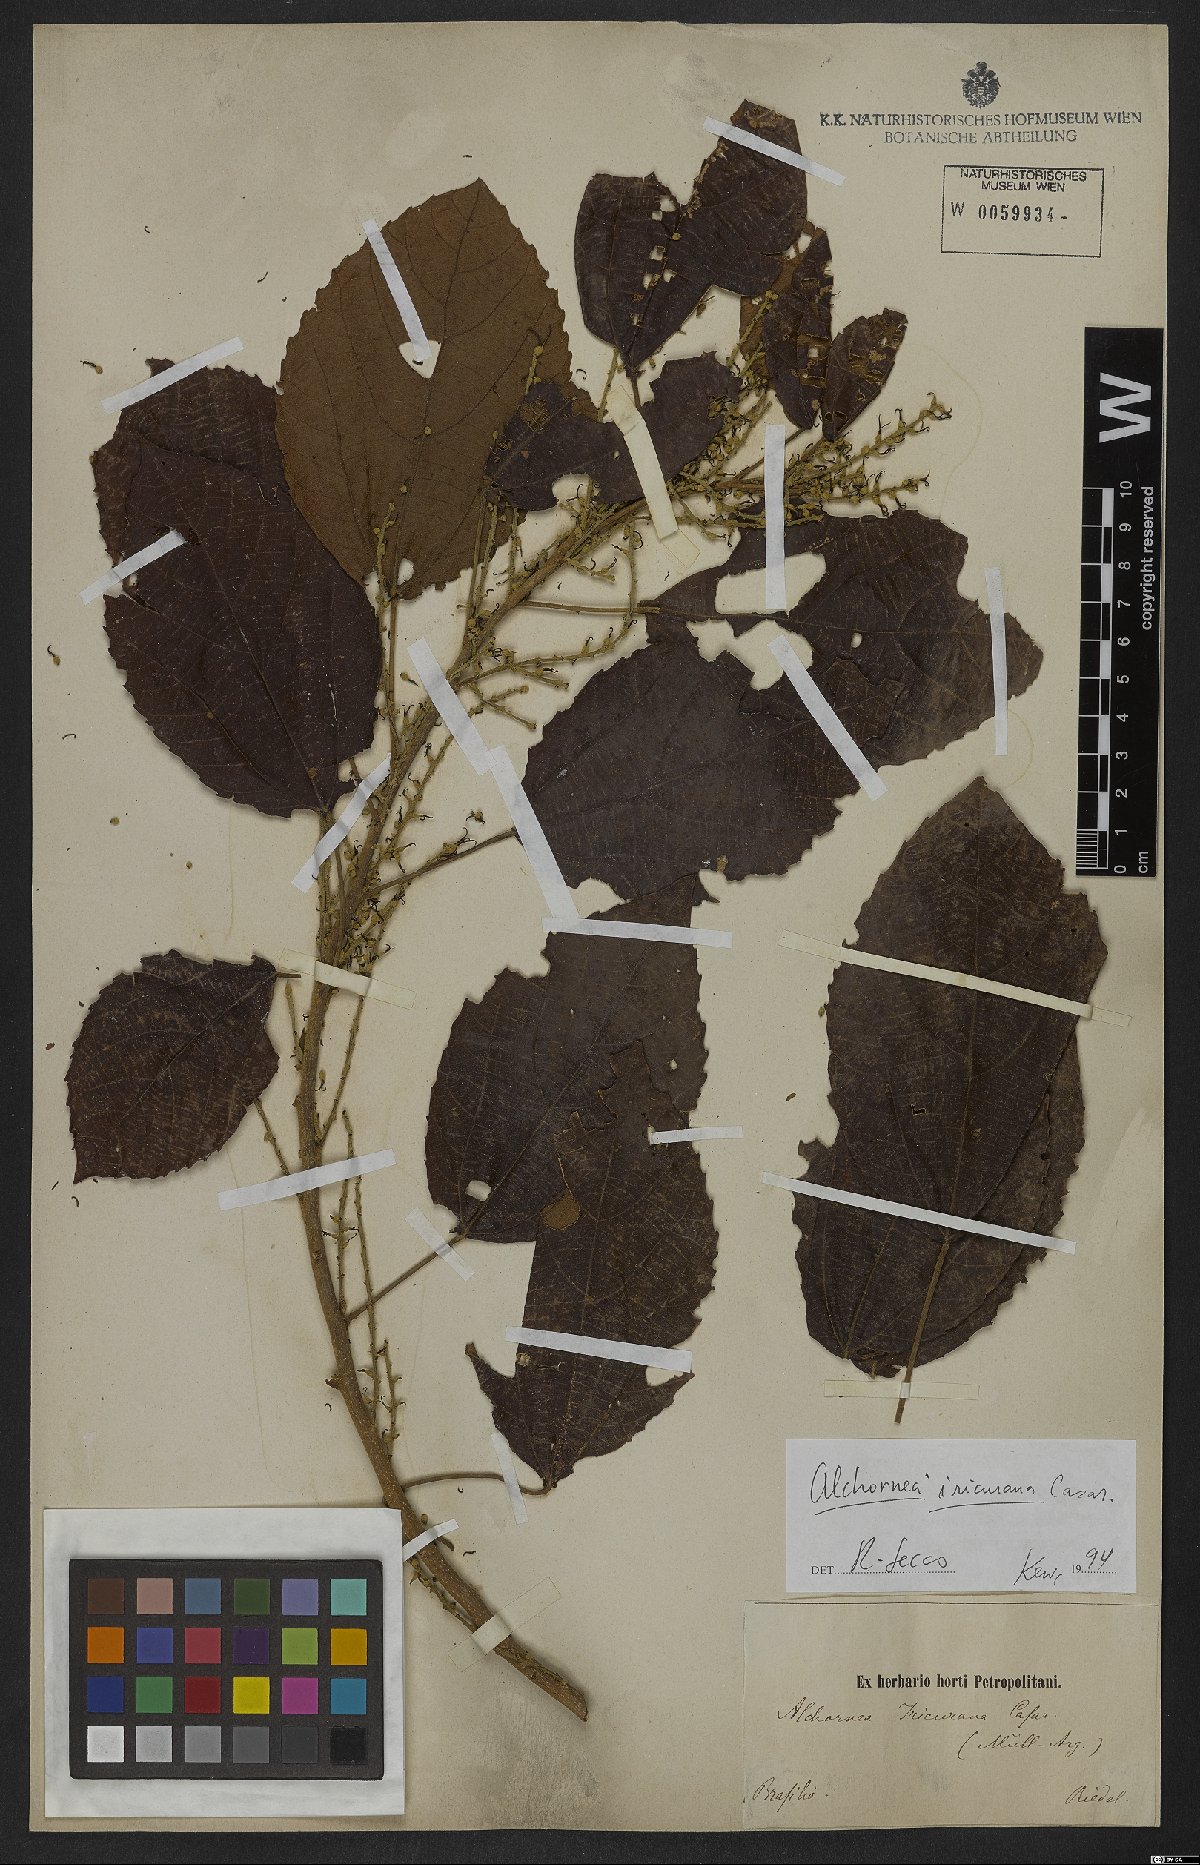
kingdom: Plantae
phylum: Tracheophyta
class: Magnoliopsida
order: Malpighiales
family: Euphorbiaceae
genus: Alchornea
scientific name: Alchornea glandulosa
